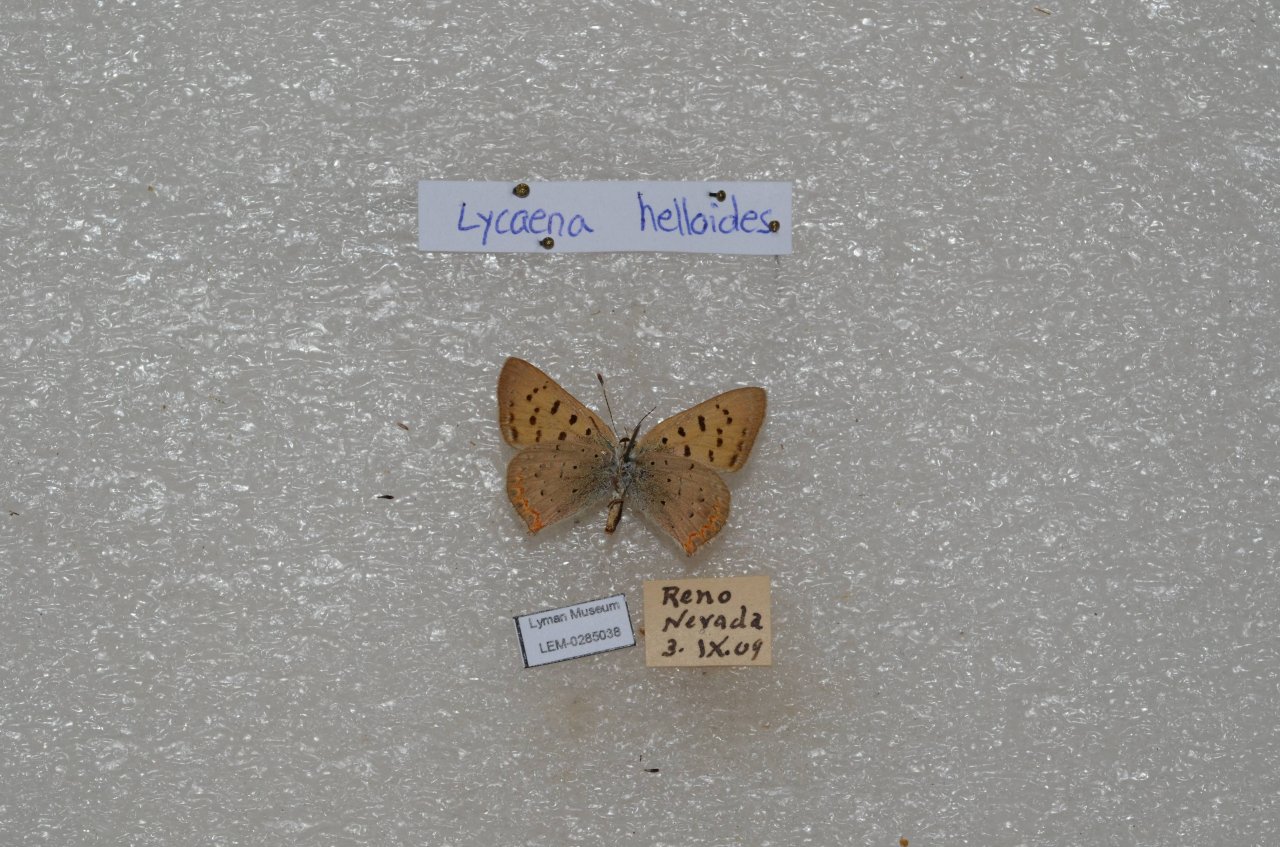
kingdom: Animalia
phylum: Arthropoda
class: Insecta
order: Lepidoptera
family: Sesiidae
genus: Sesia
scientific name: Sesia Lycaena helloides
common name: Purplish Copper
